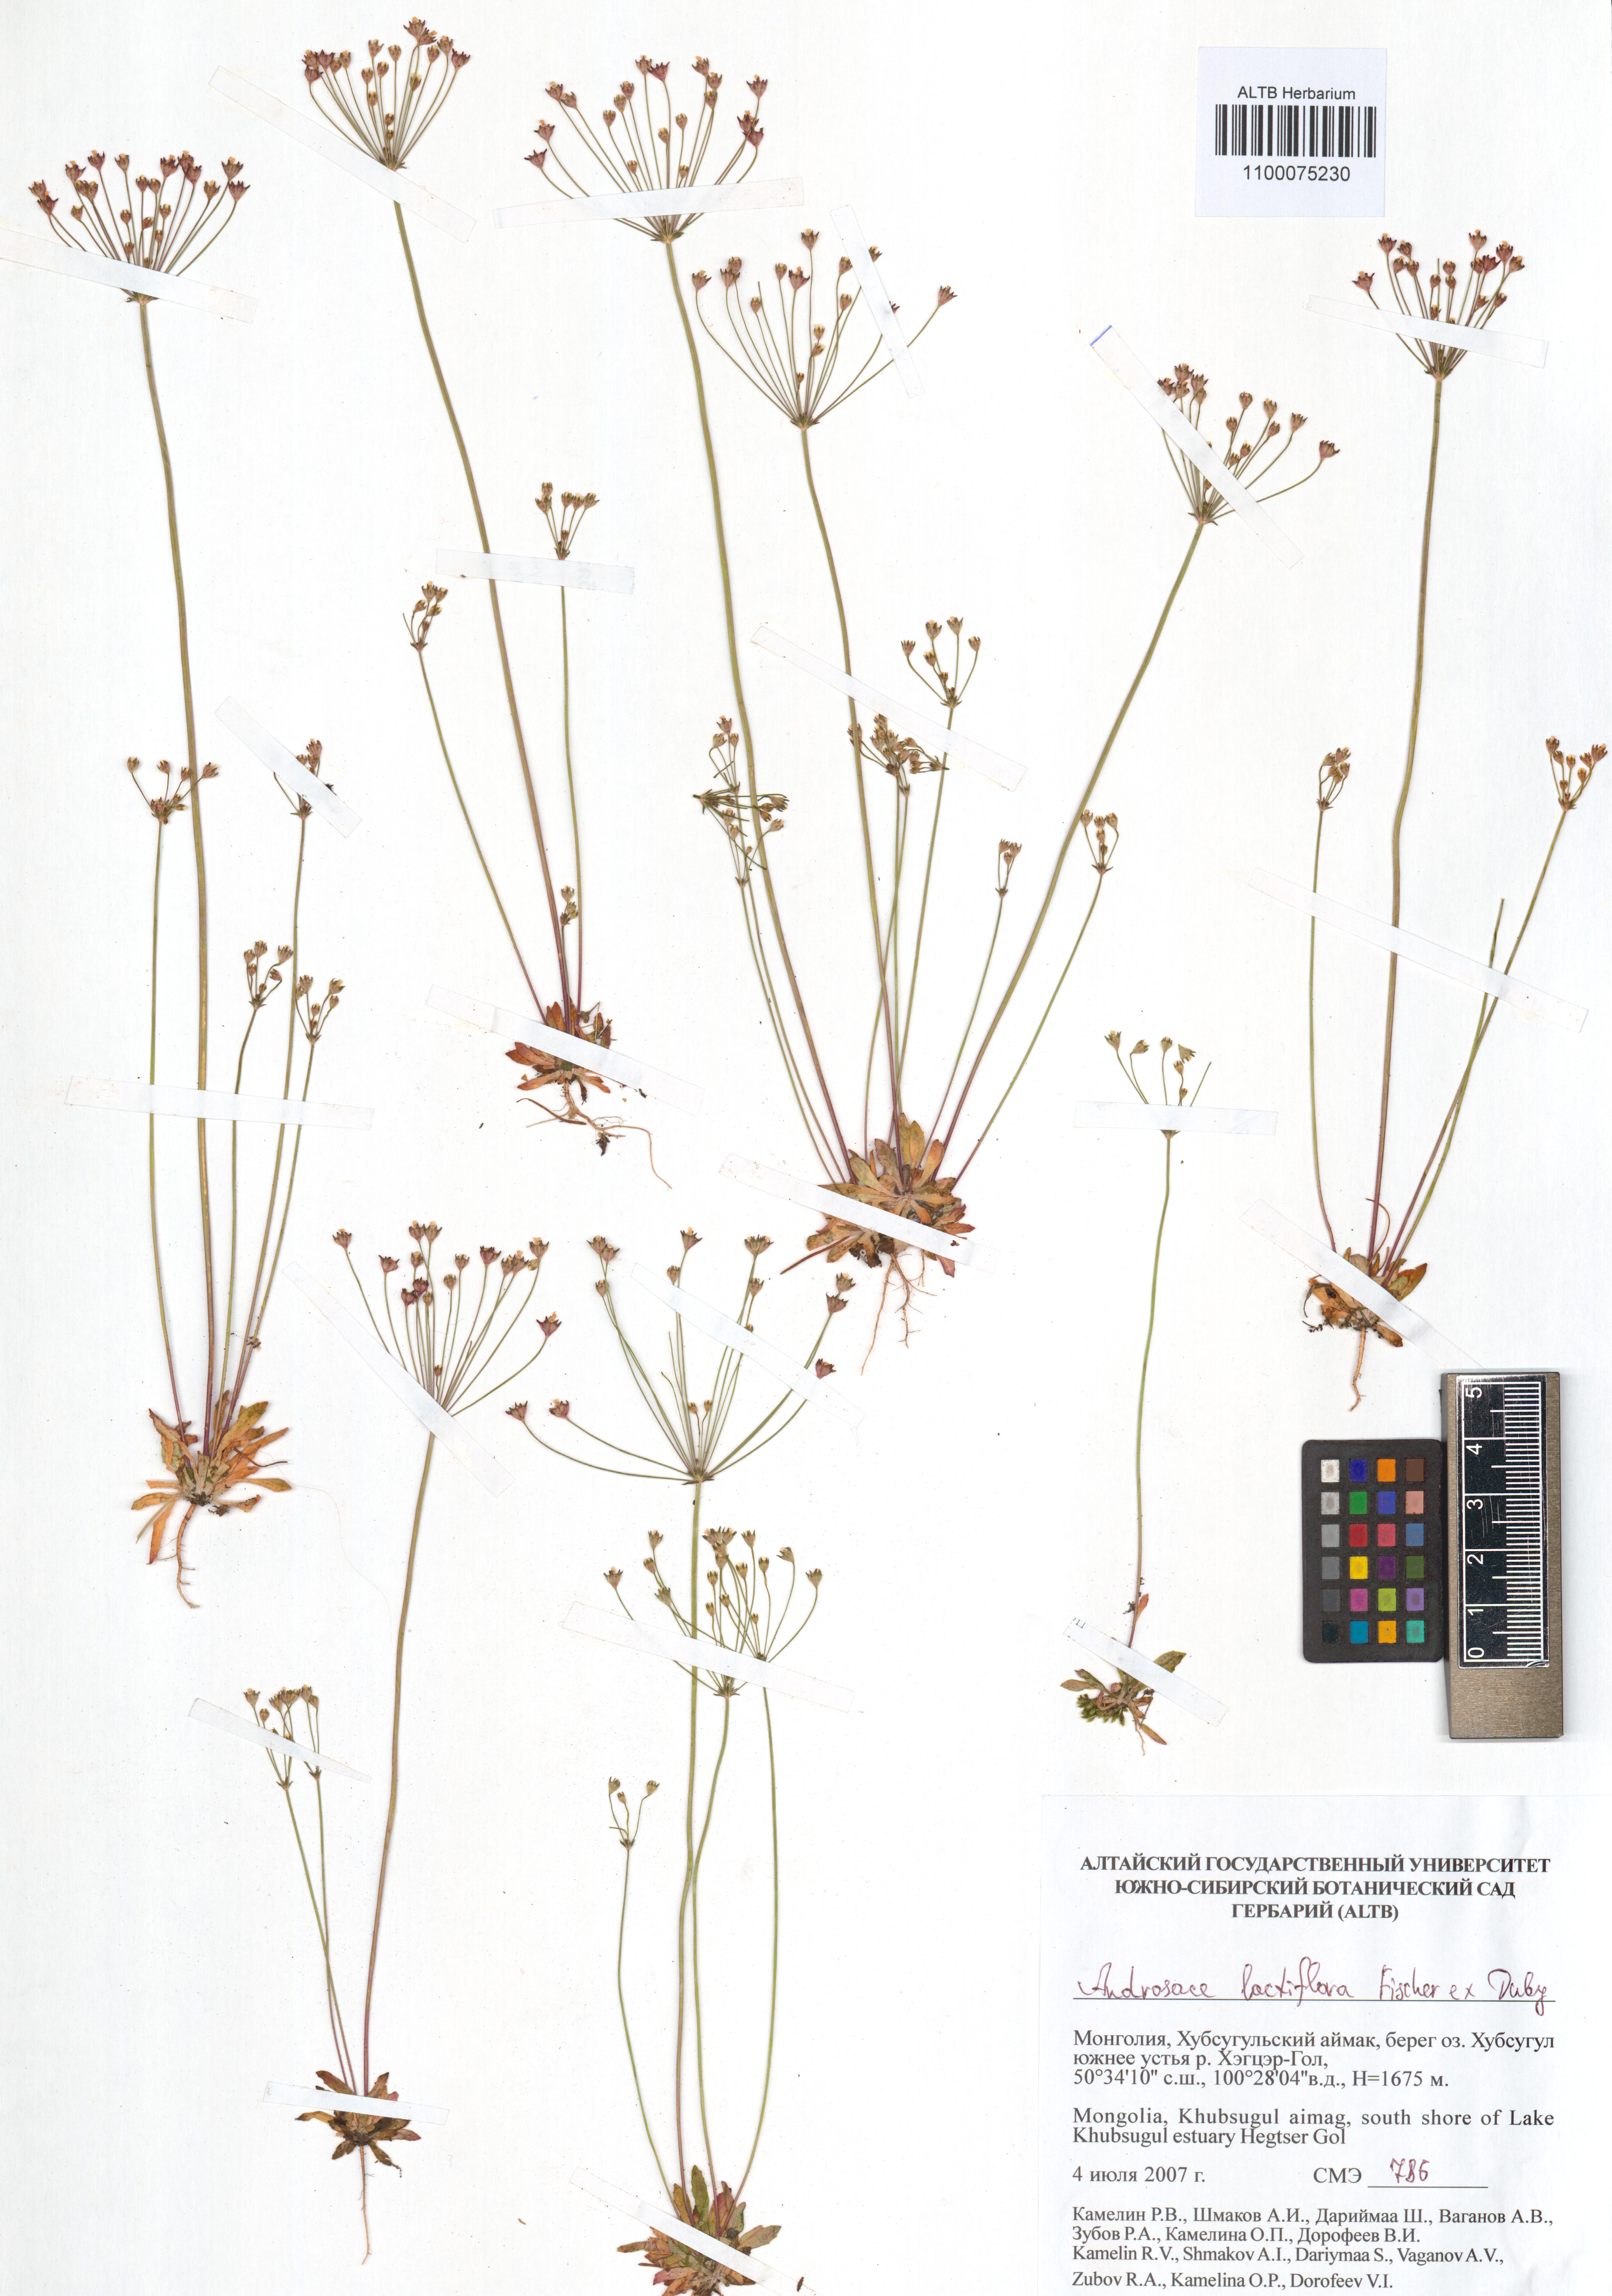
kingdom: Plantae
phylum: Tracheophyta
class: Magnoliopsida
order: Ericales
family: Primulaceae
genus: Androsace
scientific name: Androsace lactiflora
